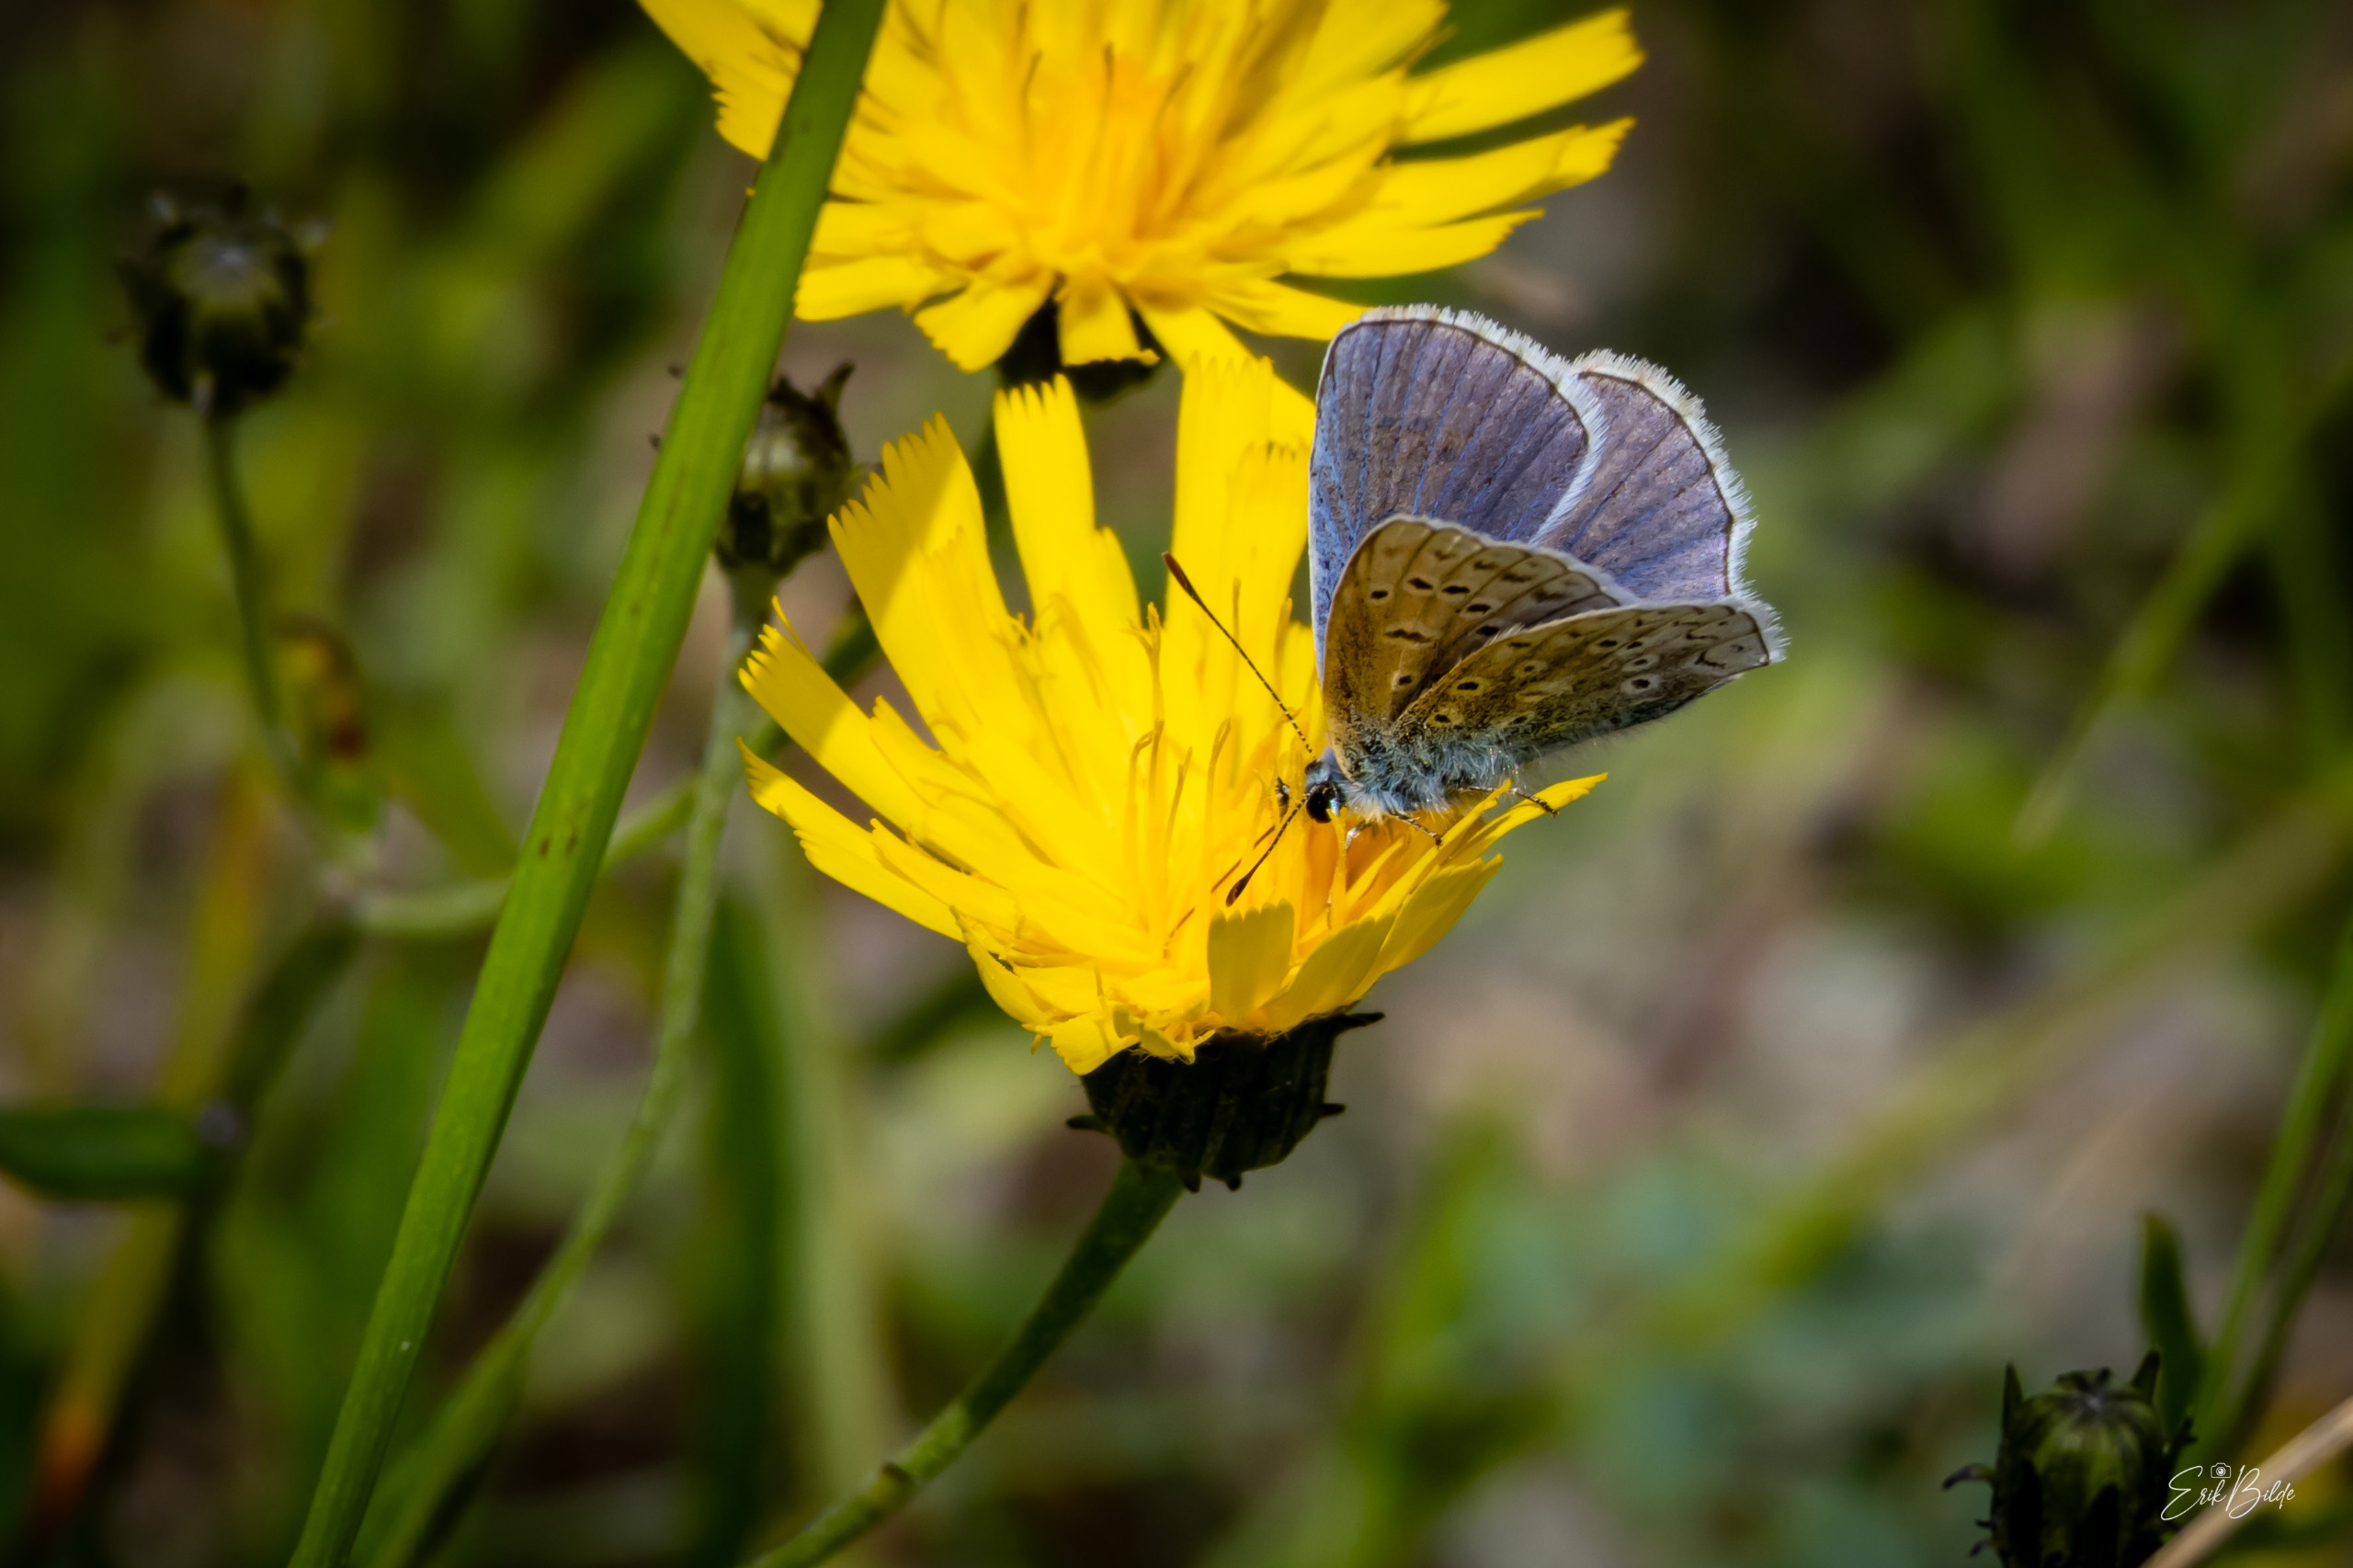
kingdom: Animalia
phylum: Arthropoda
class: Insecta
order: Lepidoptera
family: Lycaenidae
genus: Polyommatus
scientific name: Polyommatus icarus
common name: Almindelig blåfugl
